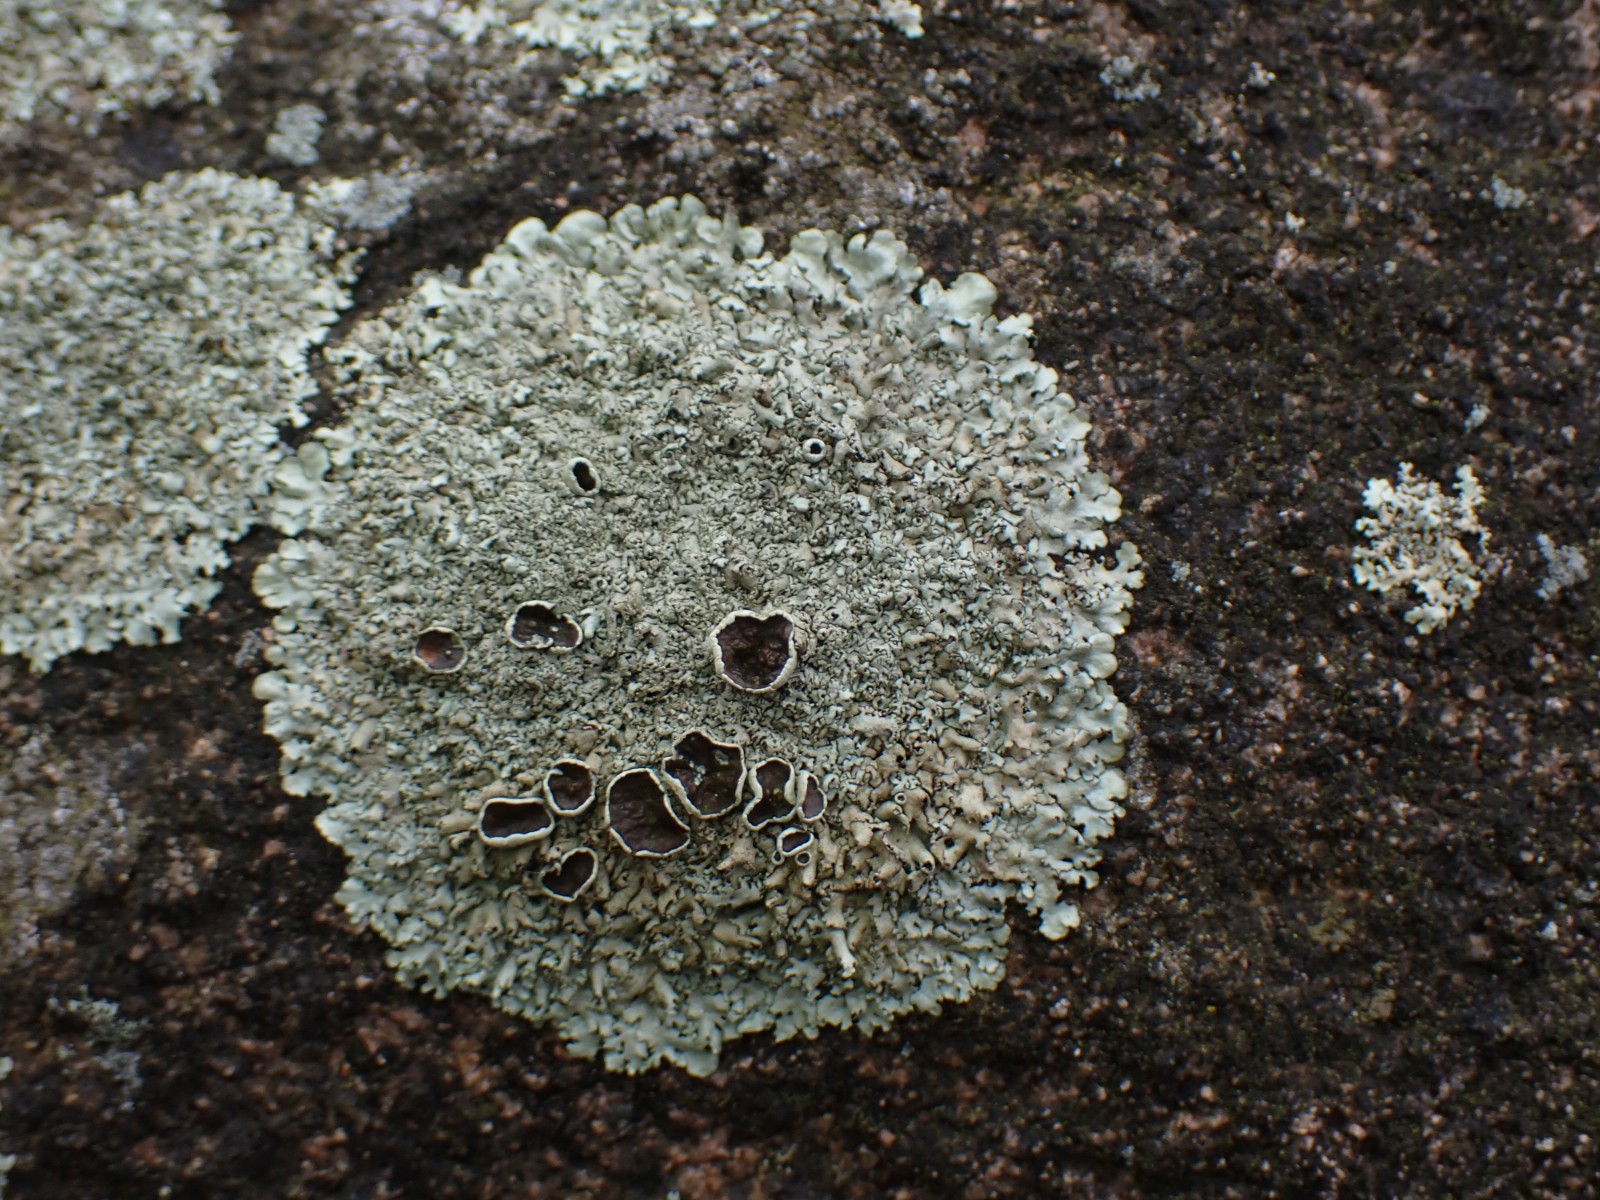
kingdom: Fungi
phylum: Ascomycota
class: Lecanoromycetes
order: Lecanorales
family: Parmeliaceae
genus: Xanthoparmelia
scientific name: Xanthoparmelia stenophylla
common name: Shingled rock shield
